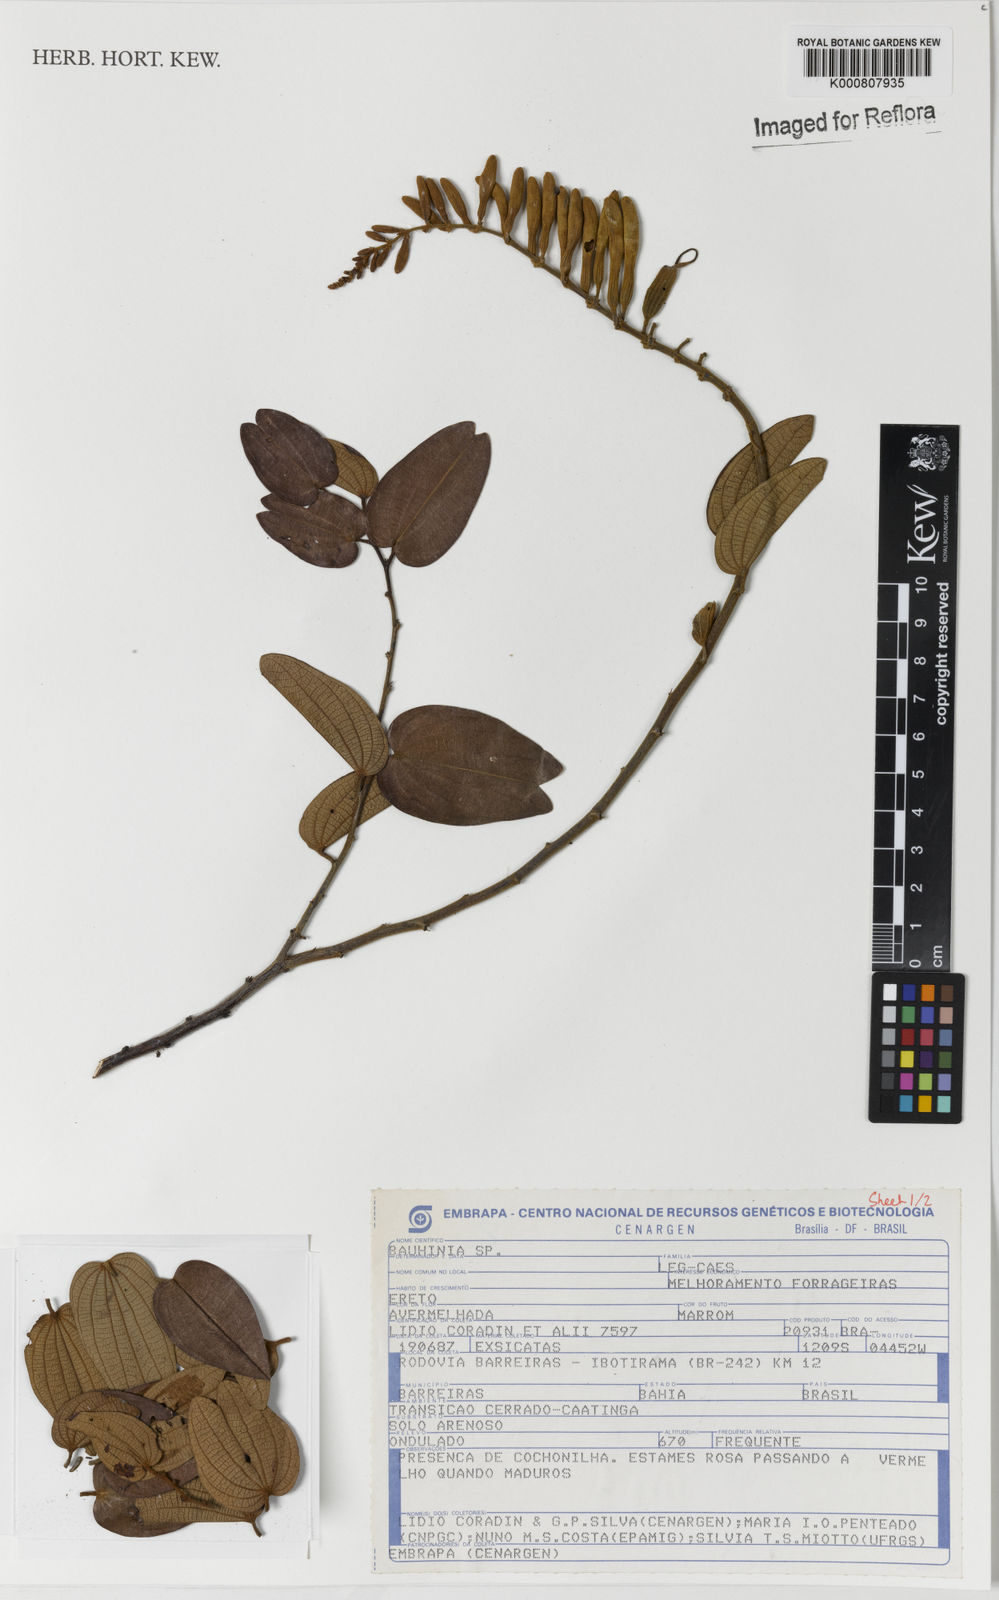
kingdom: Plantae
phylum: Tracheophyta
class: Magnoliopsida
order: Fabales
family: Fabaceae
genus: Bauhinia
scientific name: Bauhinia
